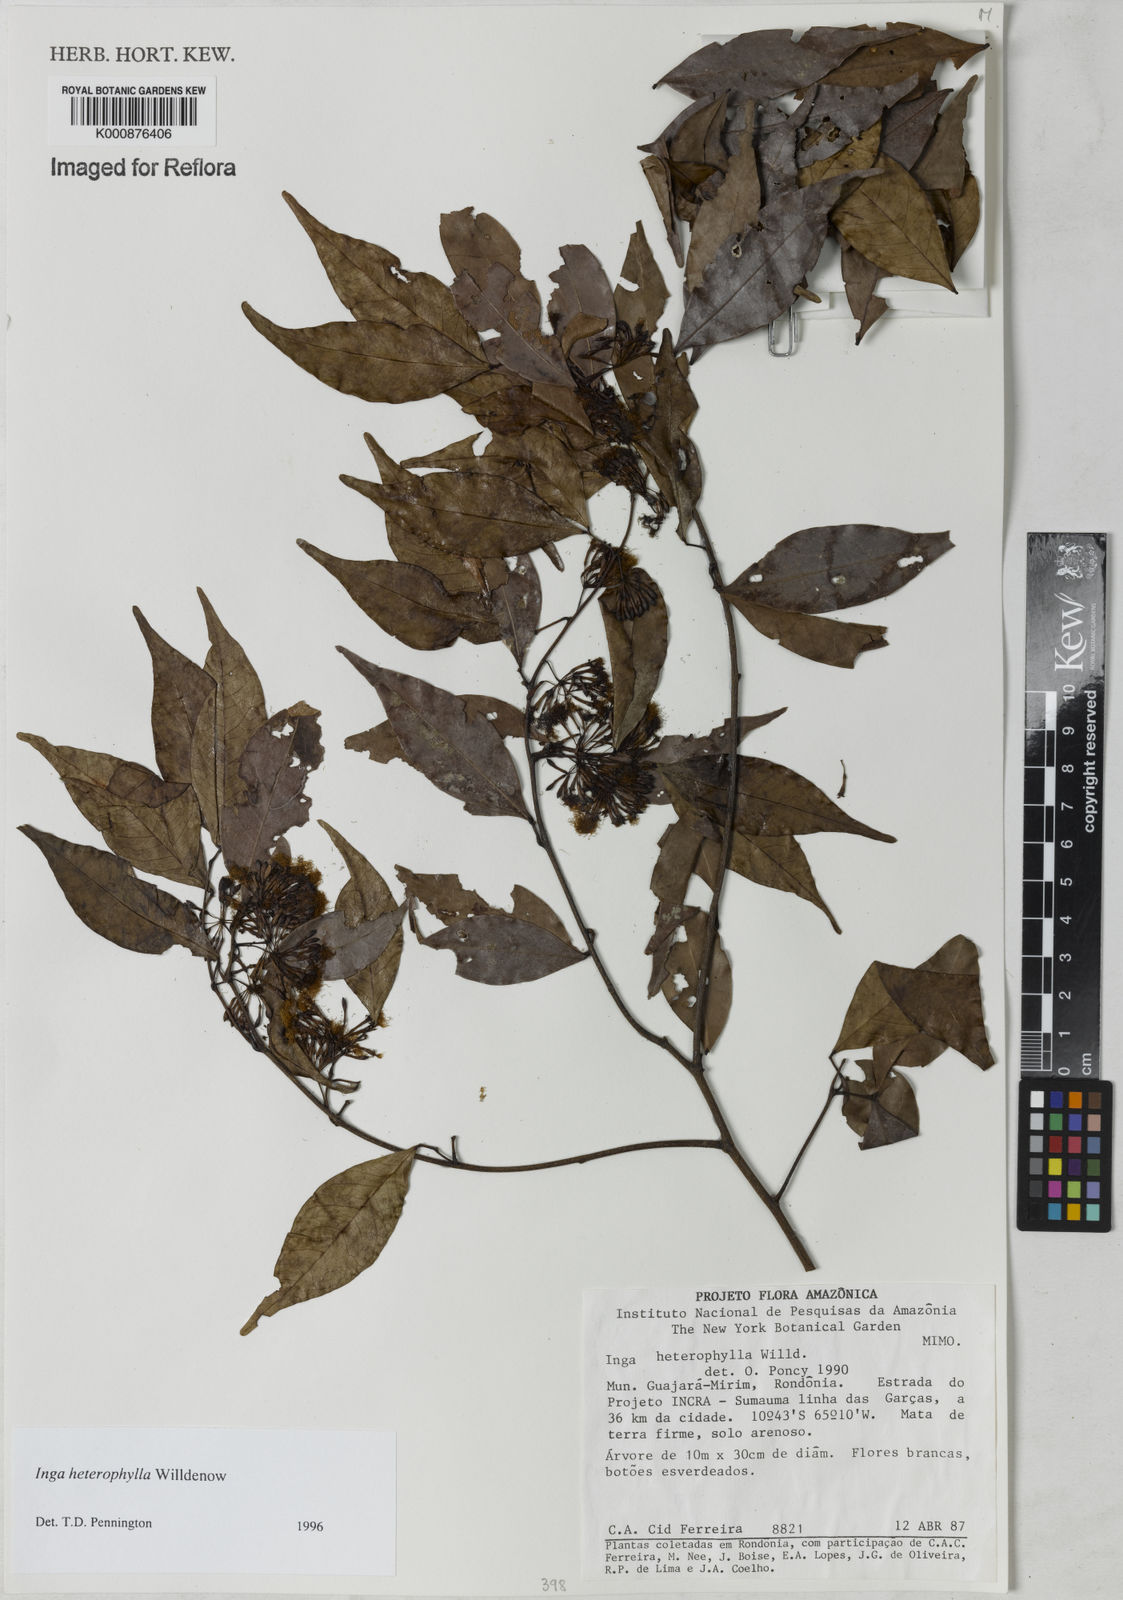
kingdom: Plantae
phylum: Tracheophyta
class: Magnoliopsida
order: Fabales
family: Fabaceae
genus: Inga
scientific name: Inga heterophylla
